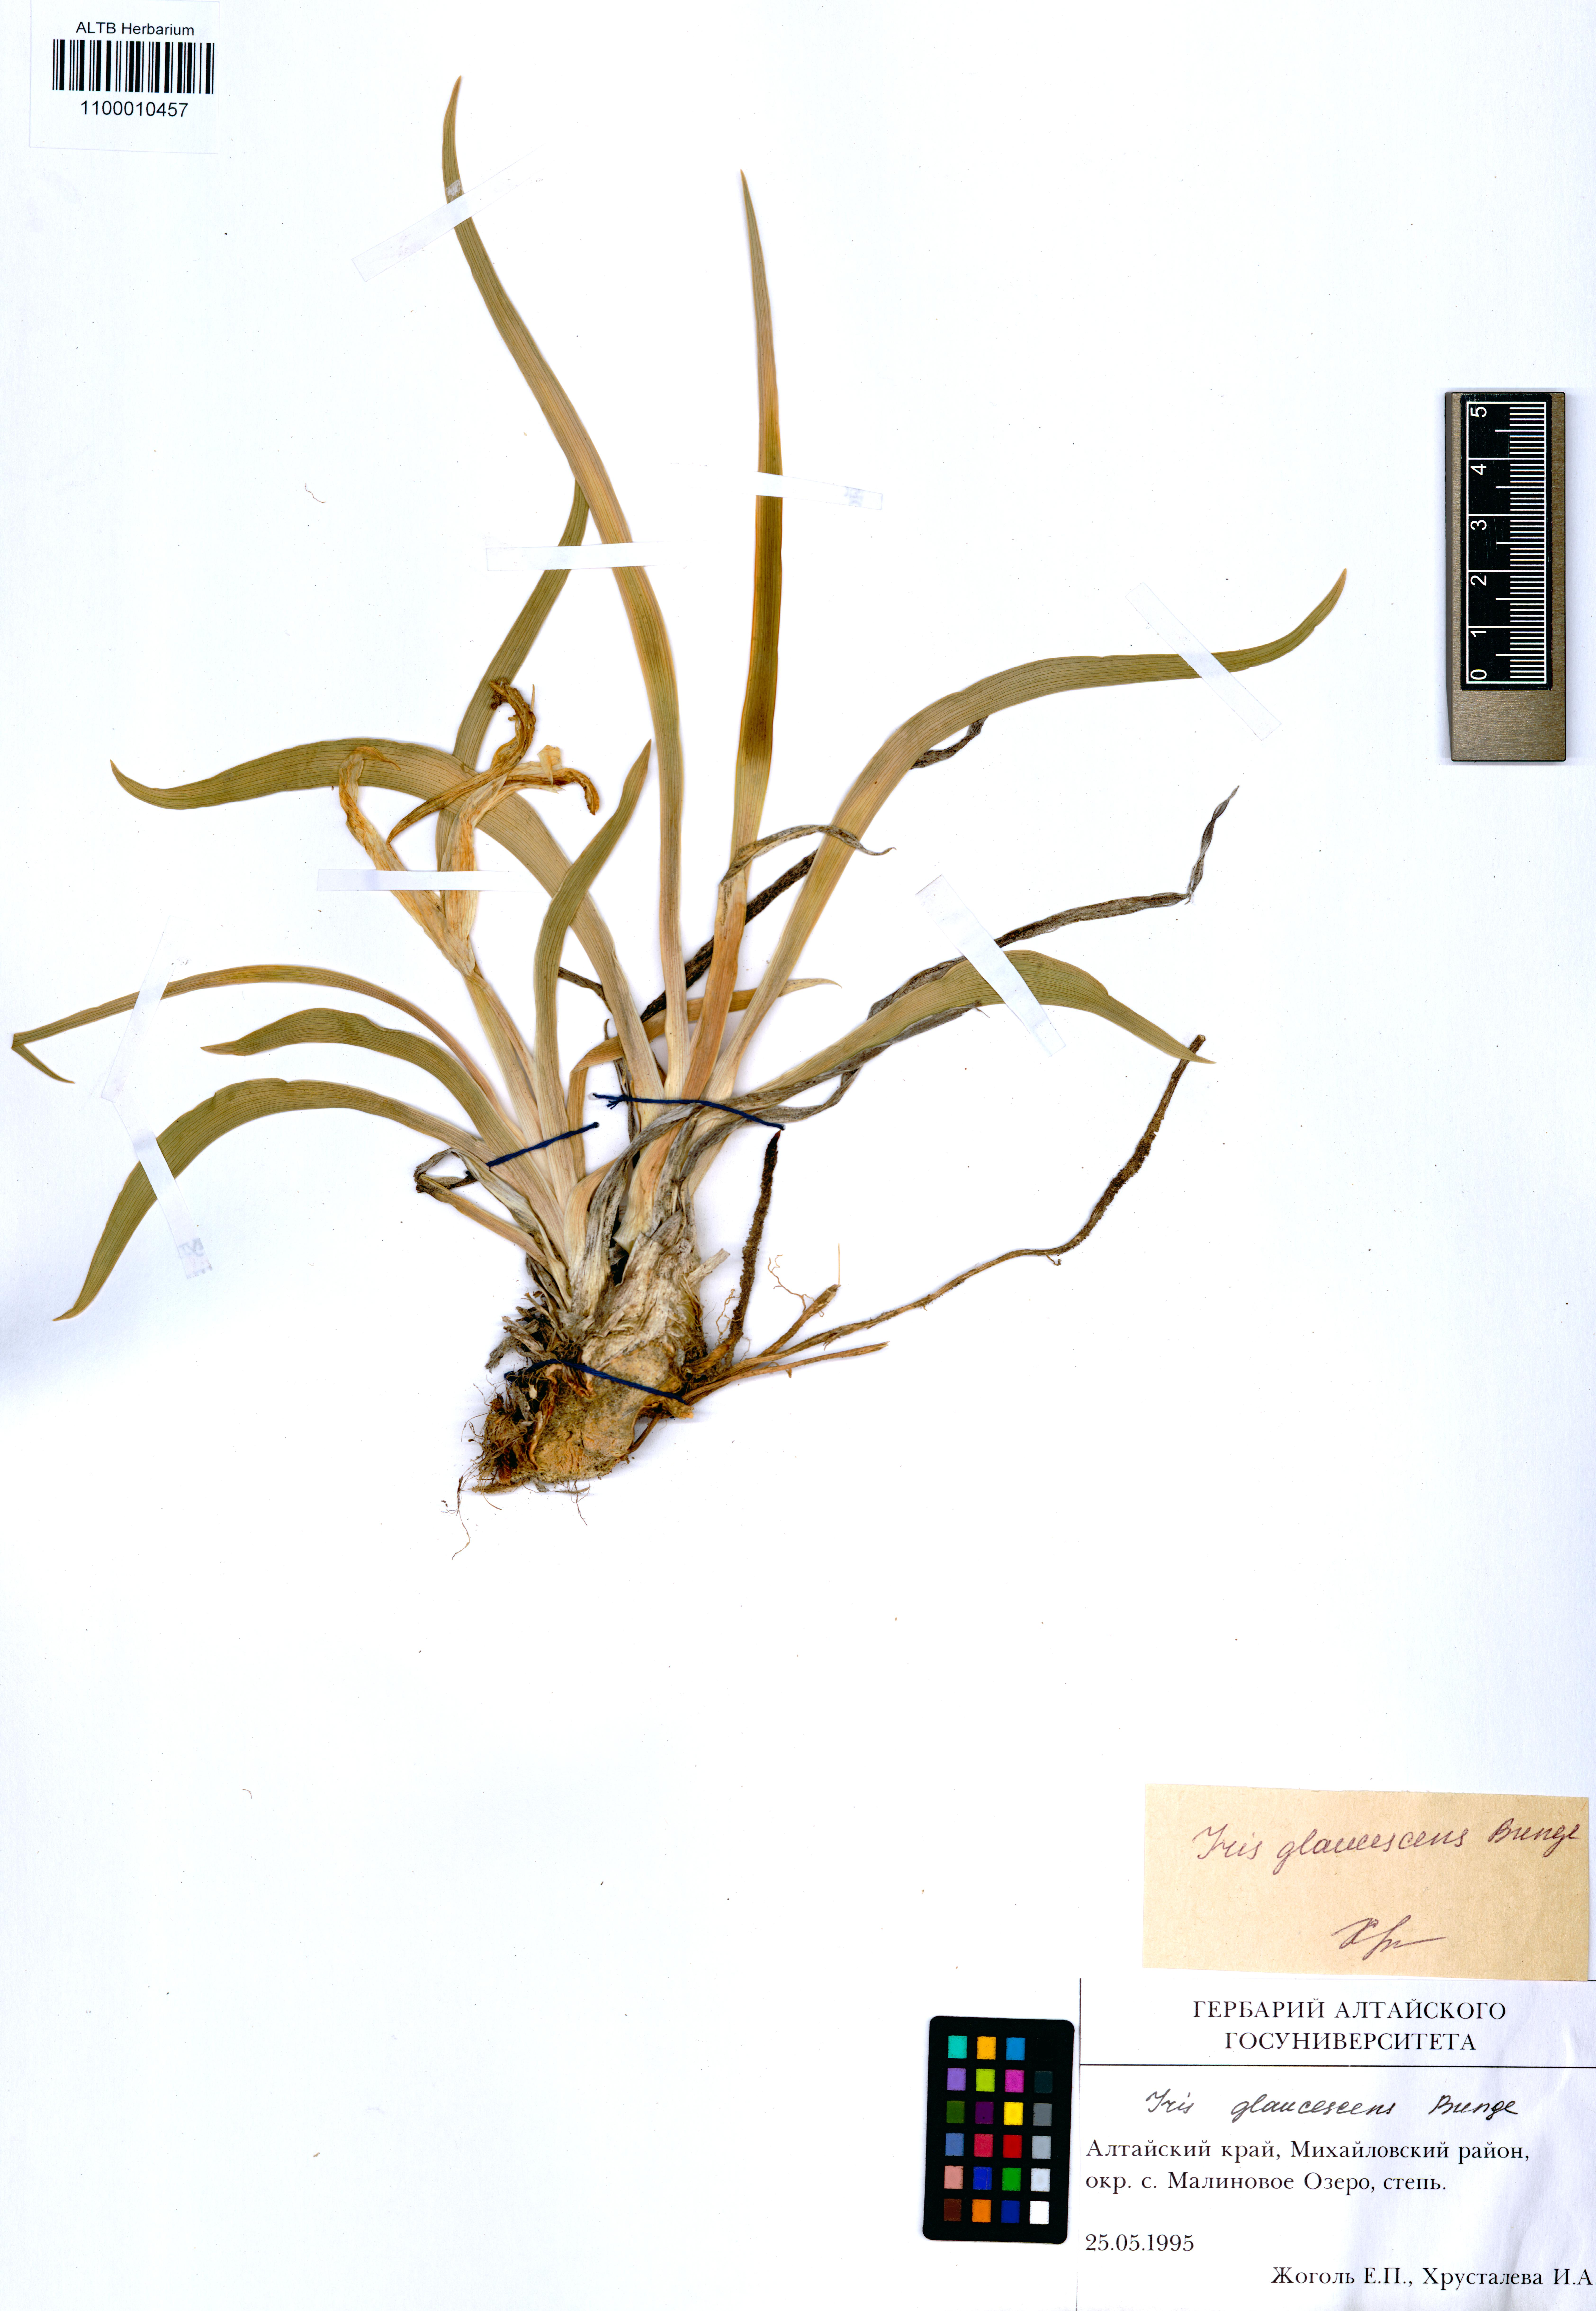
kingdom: Plantae
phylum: Tracheophyta
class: Liliopsida
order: Asparagales
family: Iridaceae
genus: Iris
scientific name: Iris glaucescens
